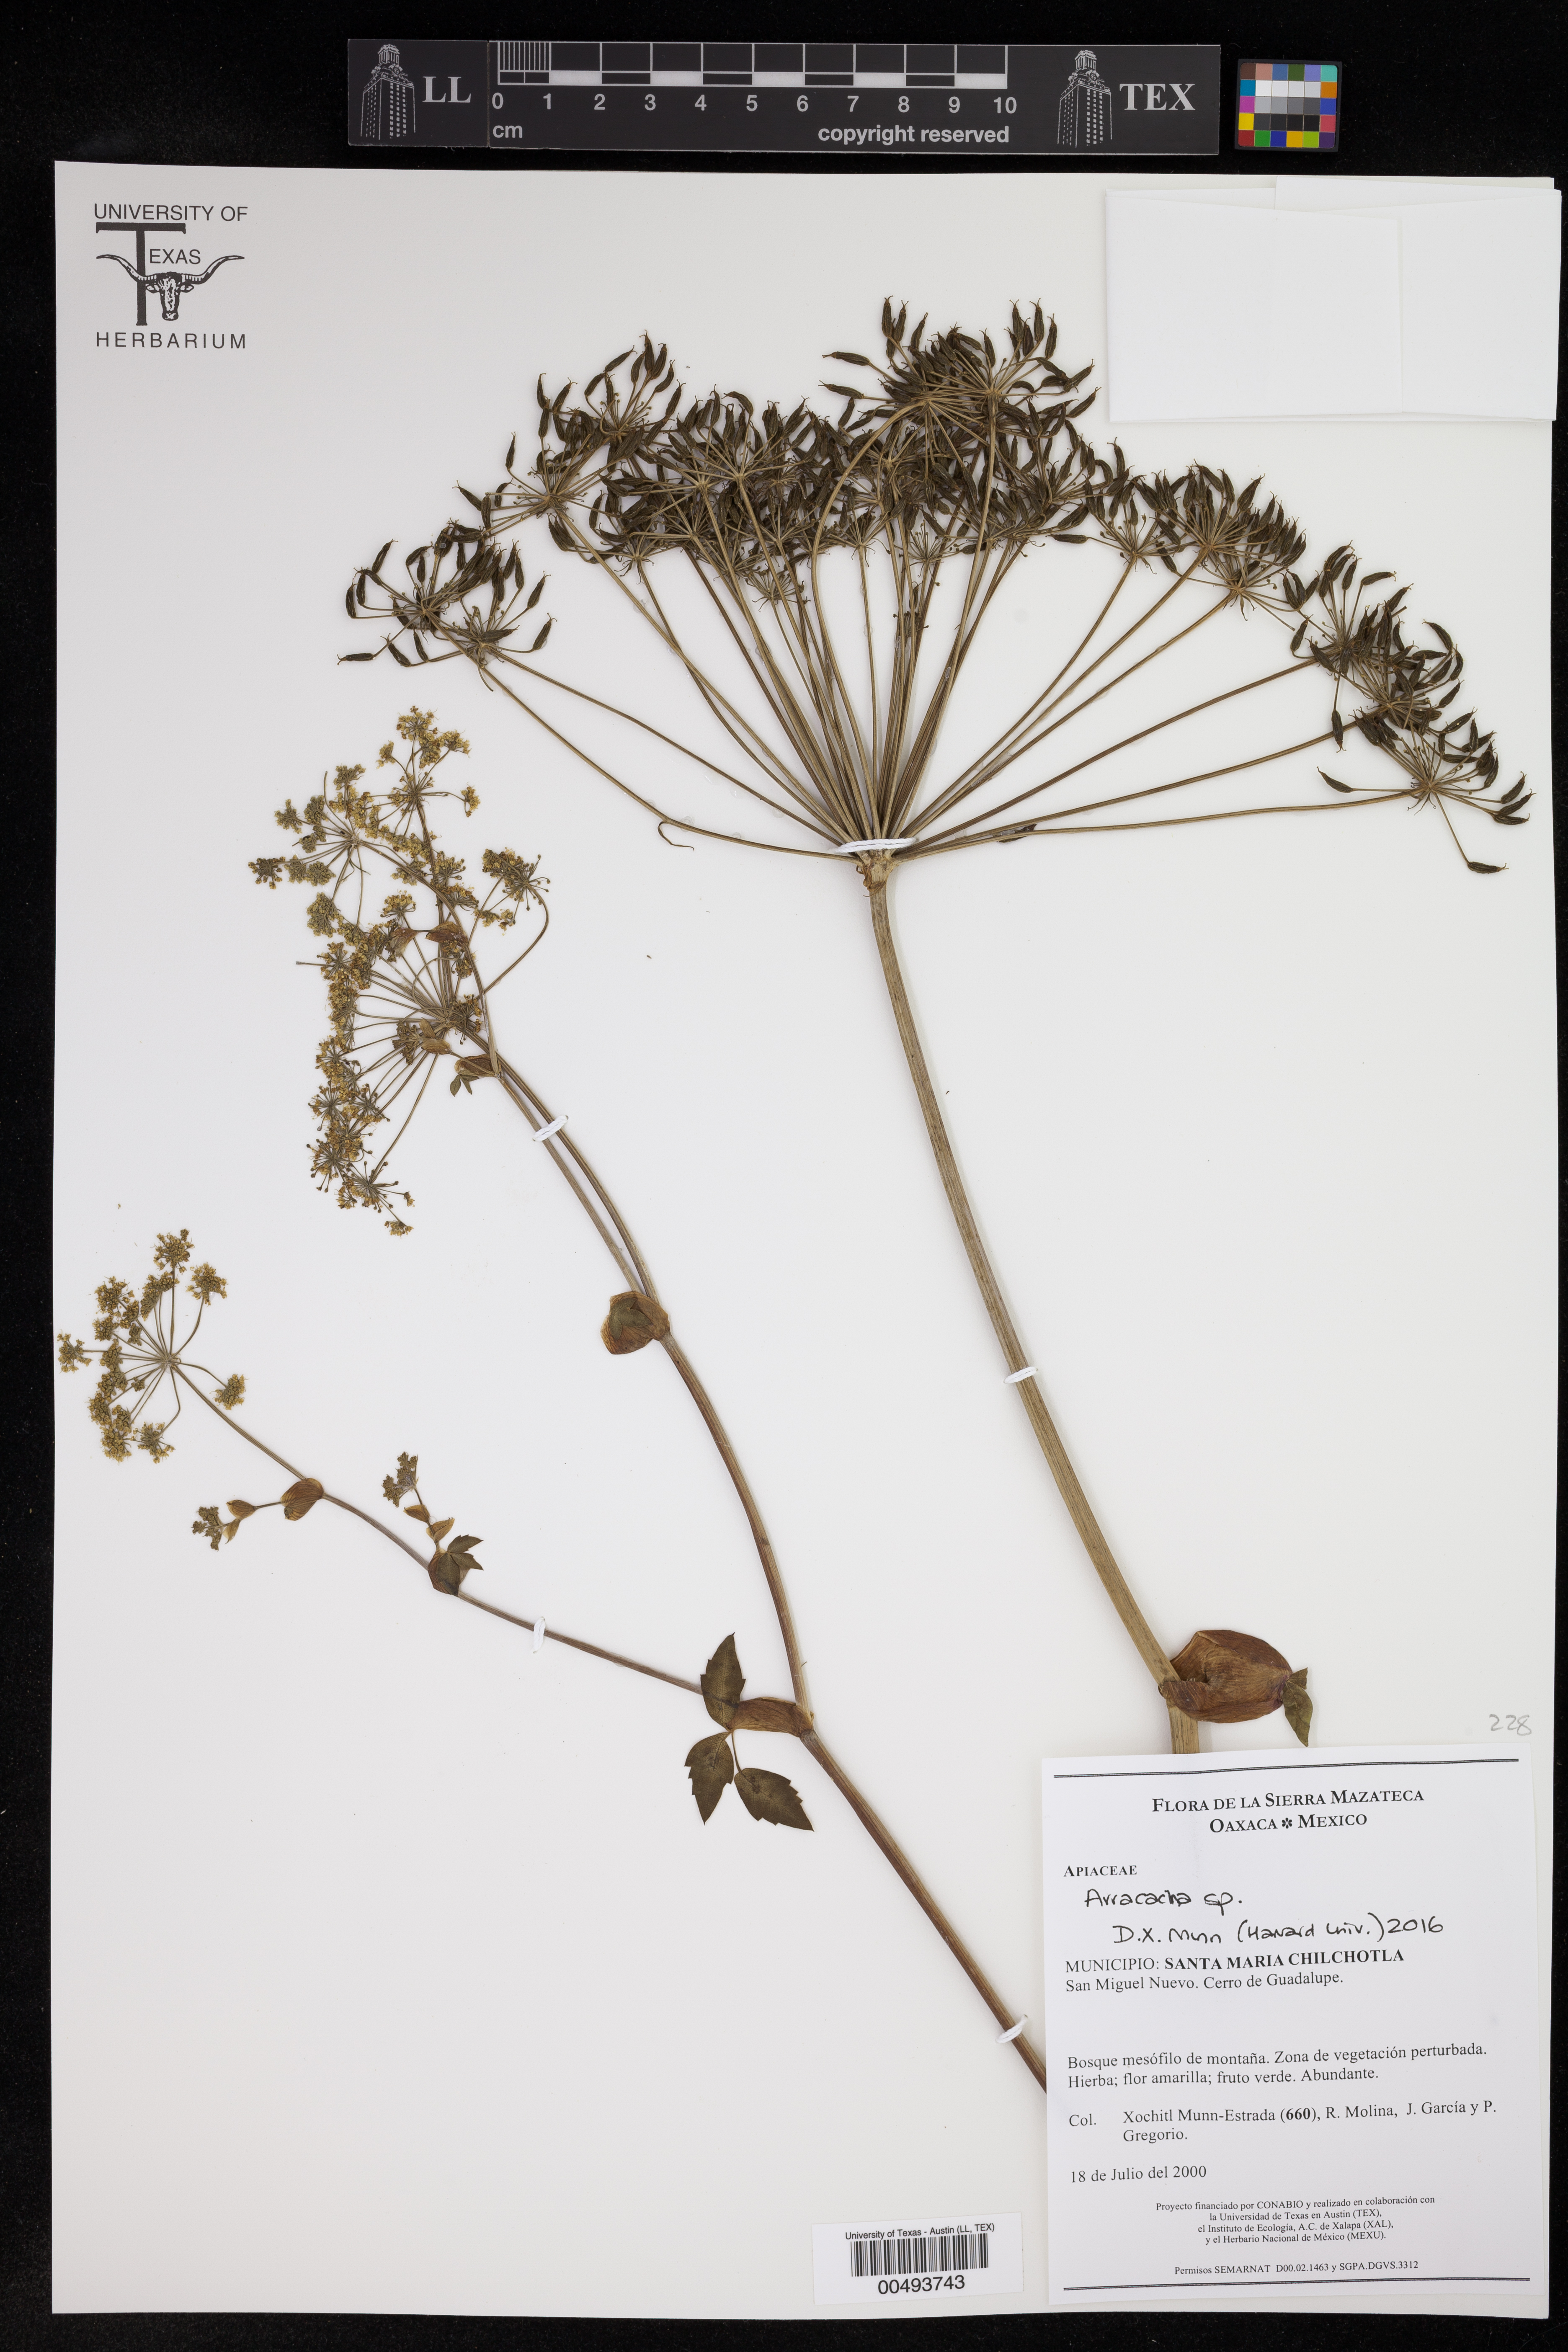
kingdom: Plantae
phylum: Tracheophyta
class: Magnoliopsida
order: Apiales
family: Apiaceae
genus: Arracacha
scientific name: Arracacha
